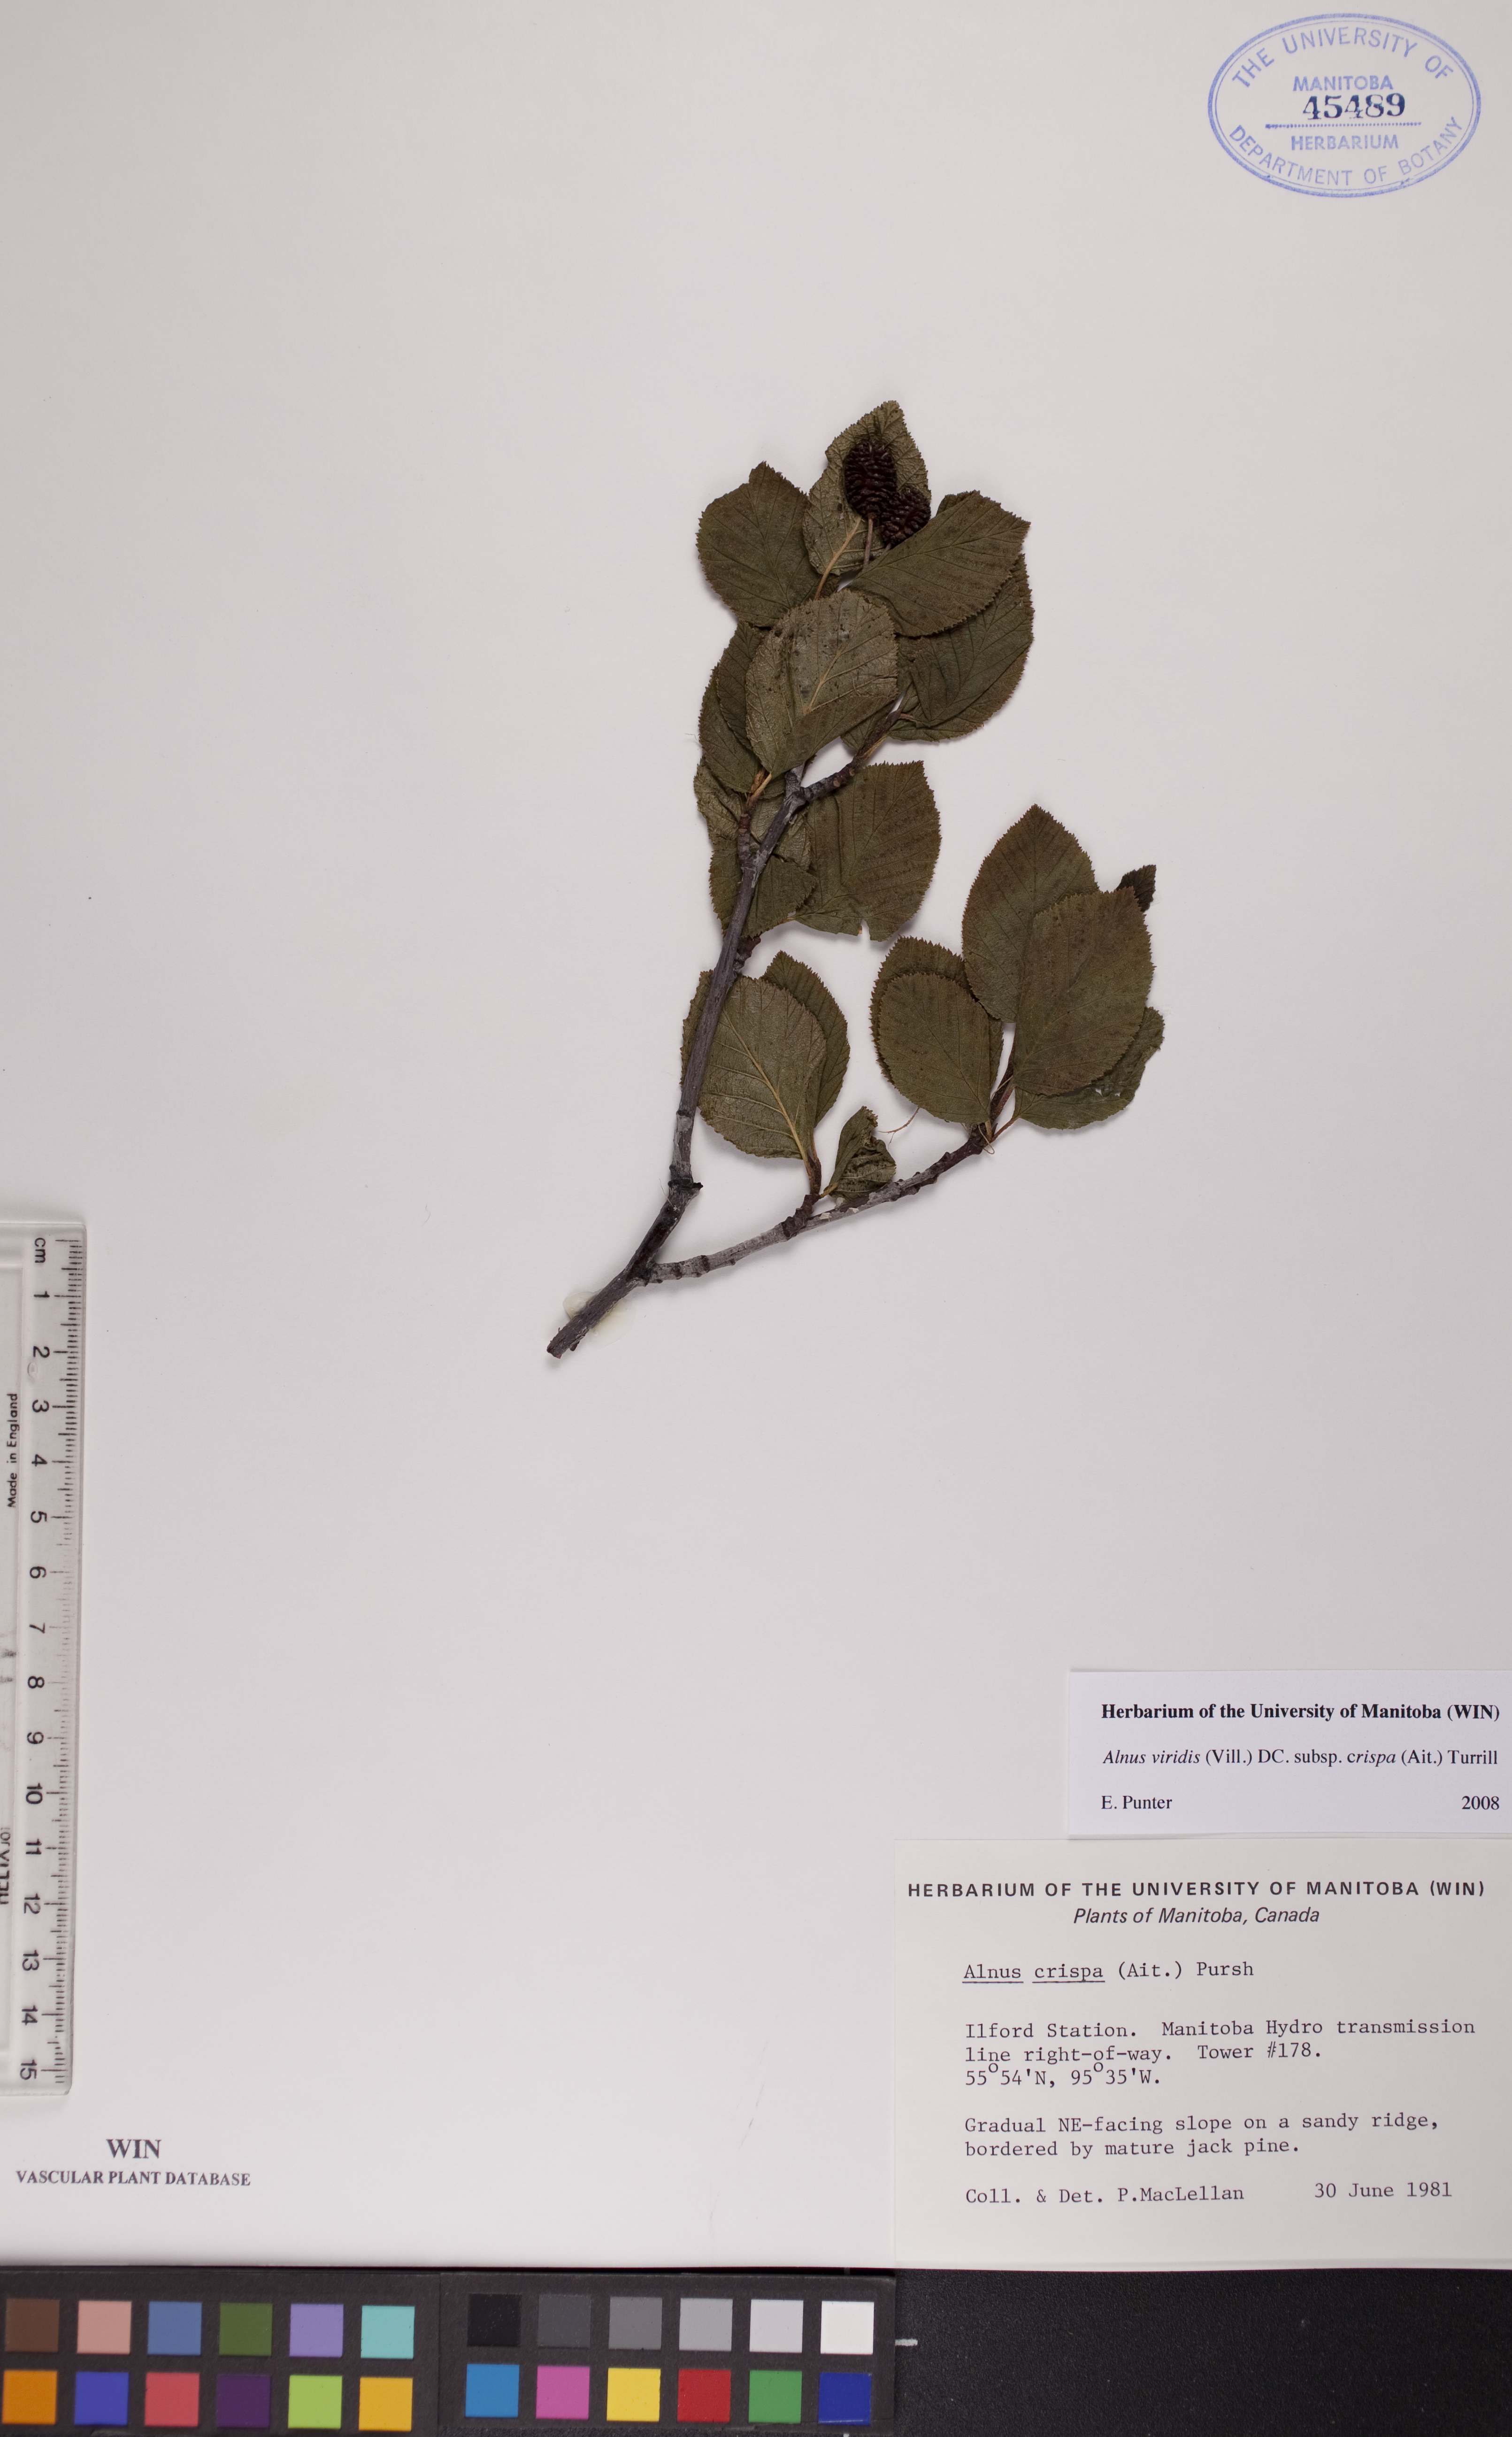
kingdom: Plantae
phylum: Tracheophyta
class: Magnoliopsida
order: Fagales
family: Betulaceae
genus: Alnus
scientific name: Alnus alnobetula
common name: Green alder
